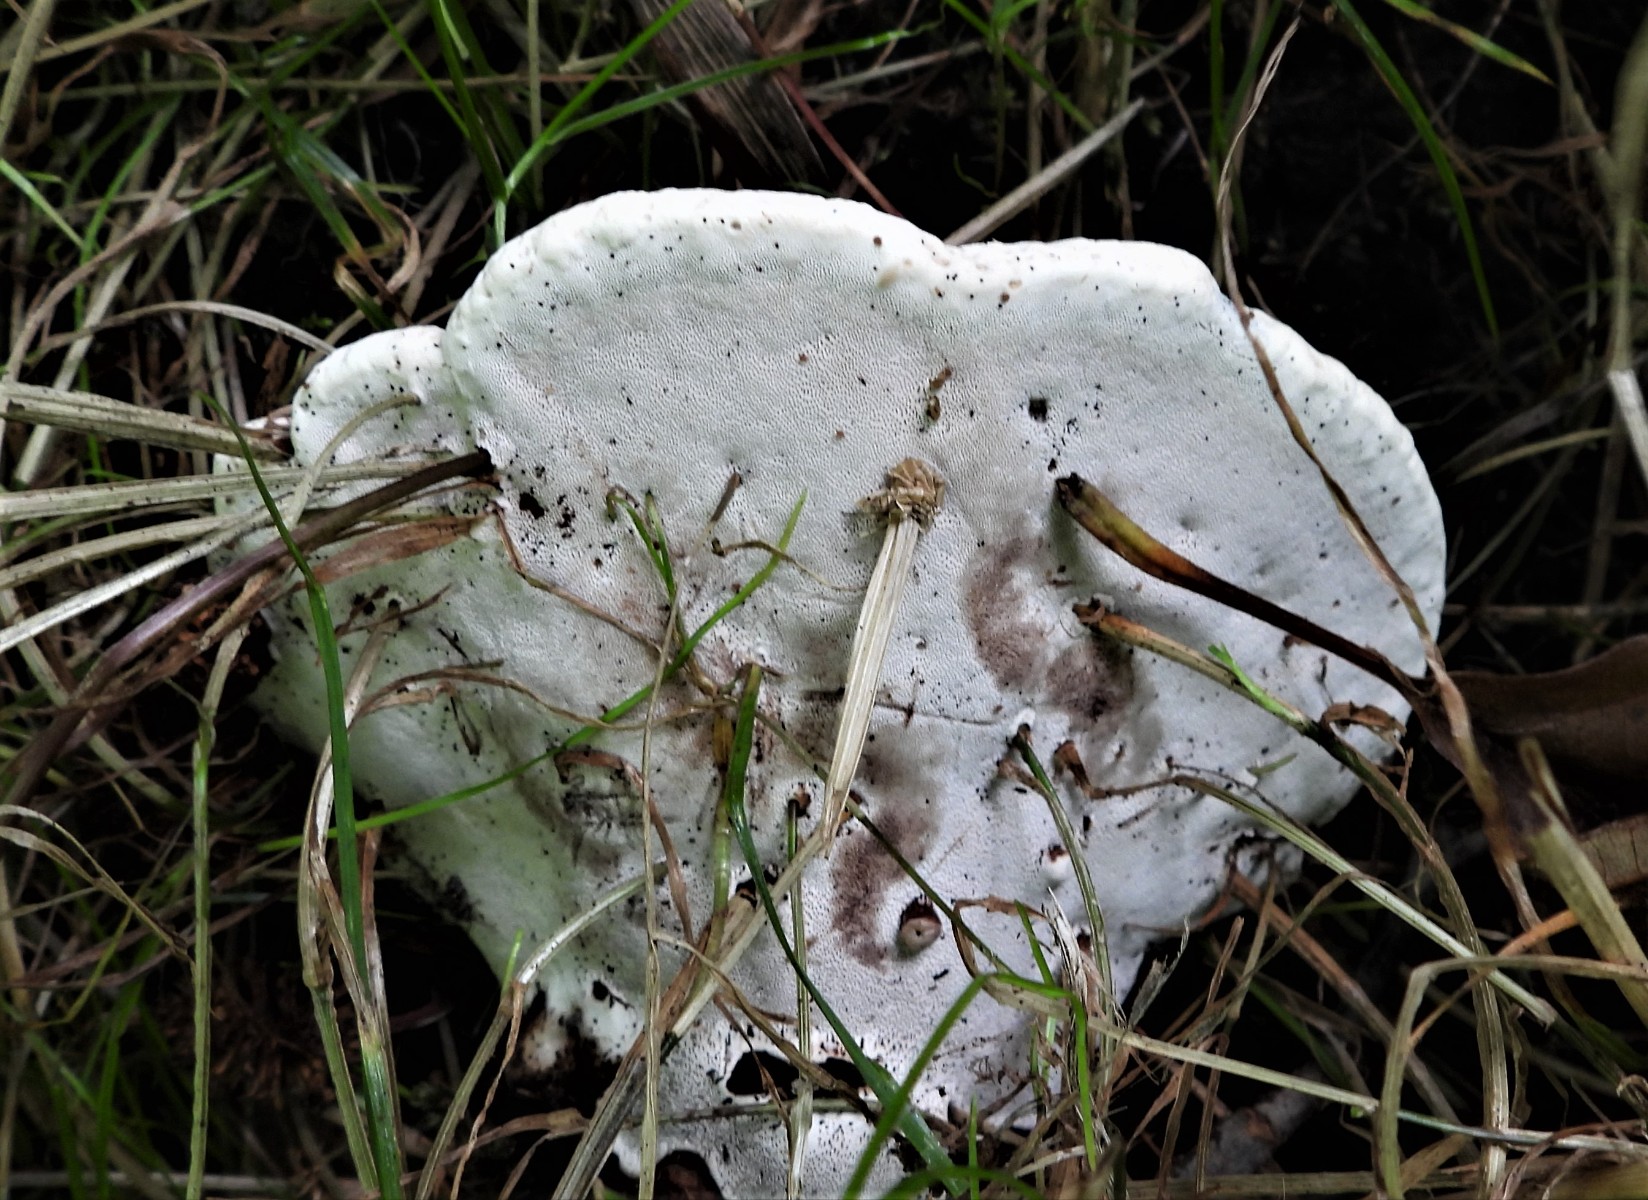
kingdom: Fungi
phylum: Basidiomycota
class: Agaricomycetes
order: Polyporales
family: Polyporaceae
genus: Ganoderma
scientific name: Ganoderma applanatum
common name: flad lakporesvamp
